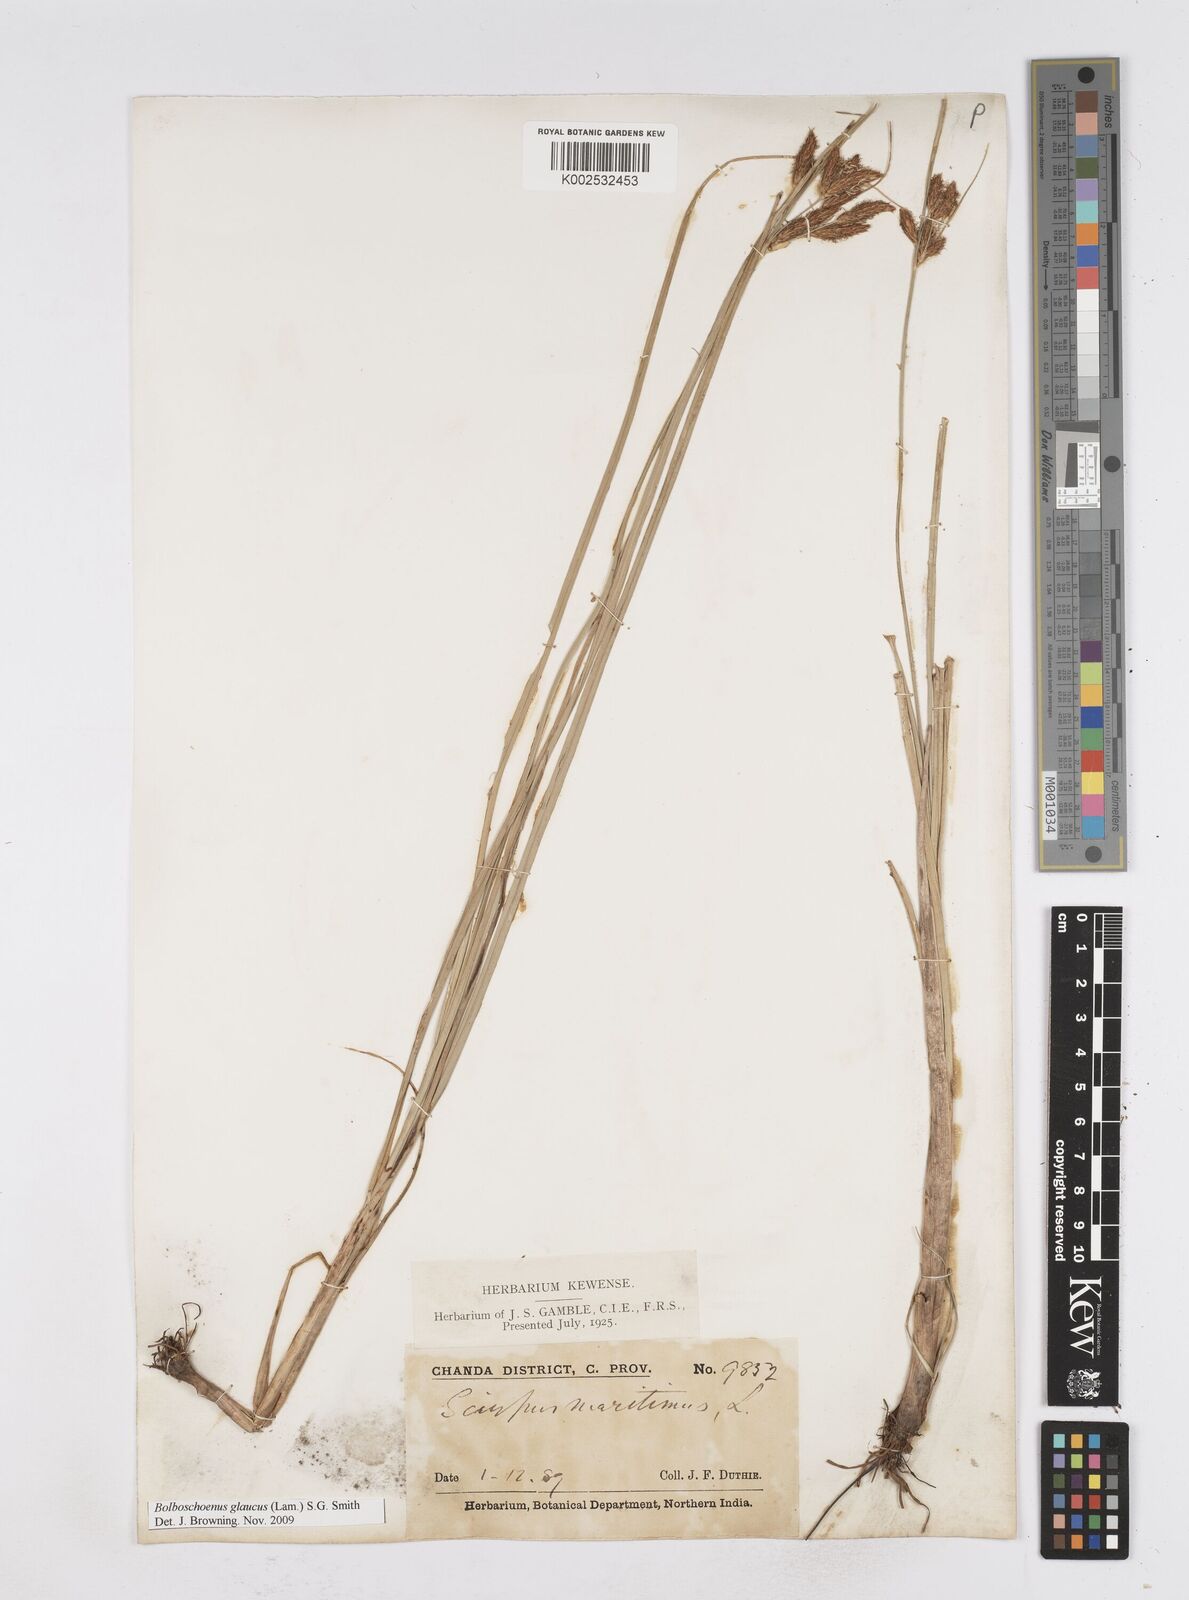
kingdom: Plantae
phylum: Tracheophyta
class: Liliopsida
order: Poales
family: Cyperaceae
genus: Bolboschoenus
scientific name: Bolboschoenus maritimus
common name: Sea club-rush
